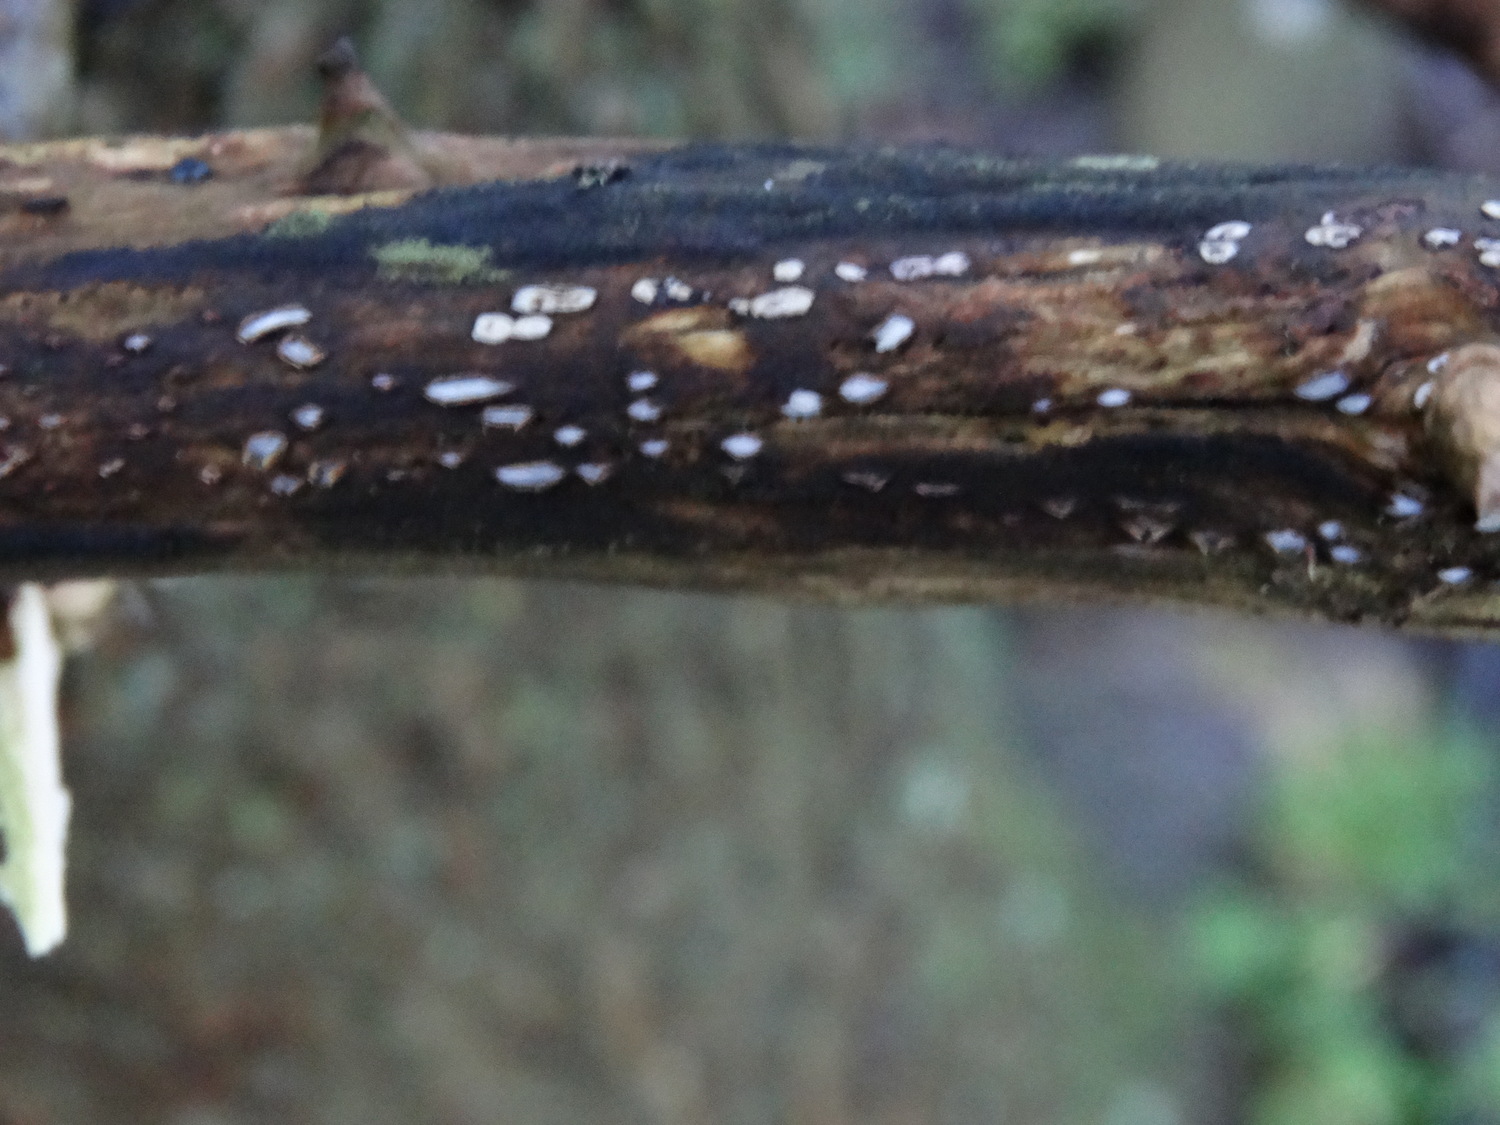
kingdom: Fungi
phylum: Ascomycota
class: Leotiomycetes
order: Chaetomellales
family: Marthamycetaceae
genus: Propolis
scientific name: Propolis farinosa
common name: almindelig vedsprængerskive
